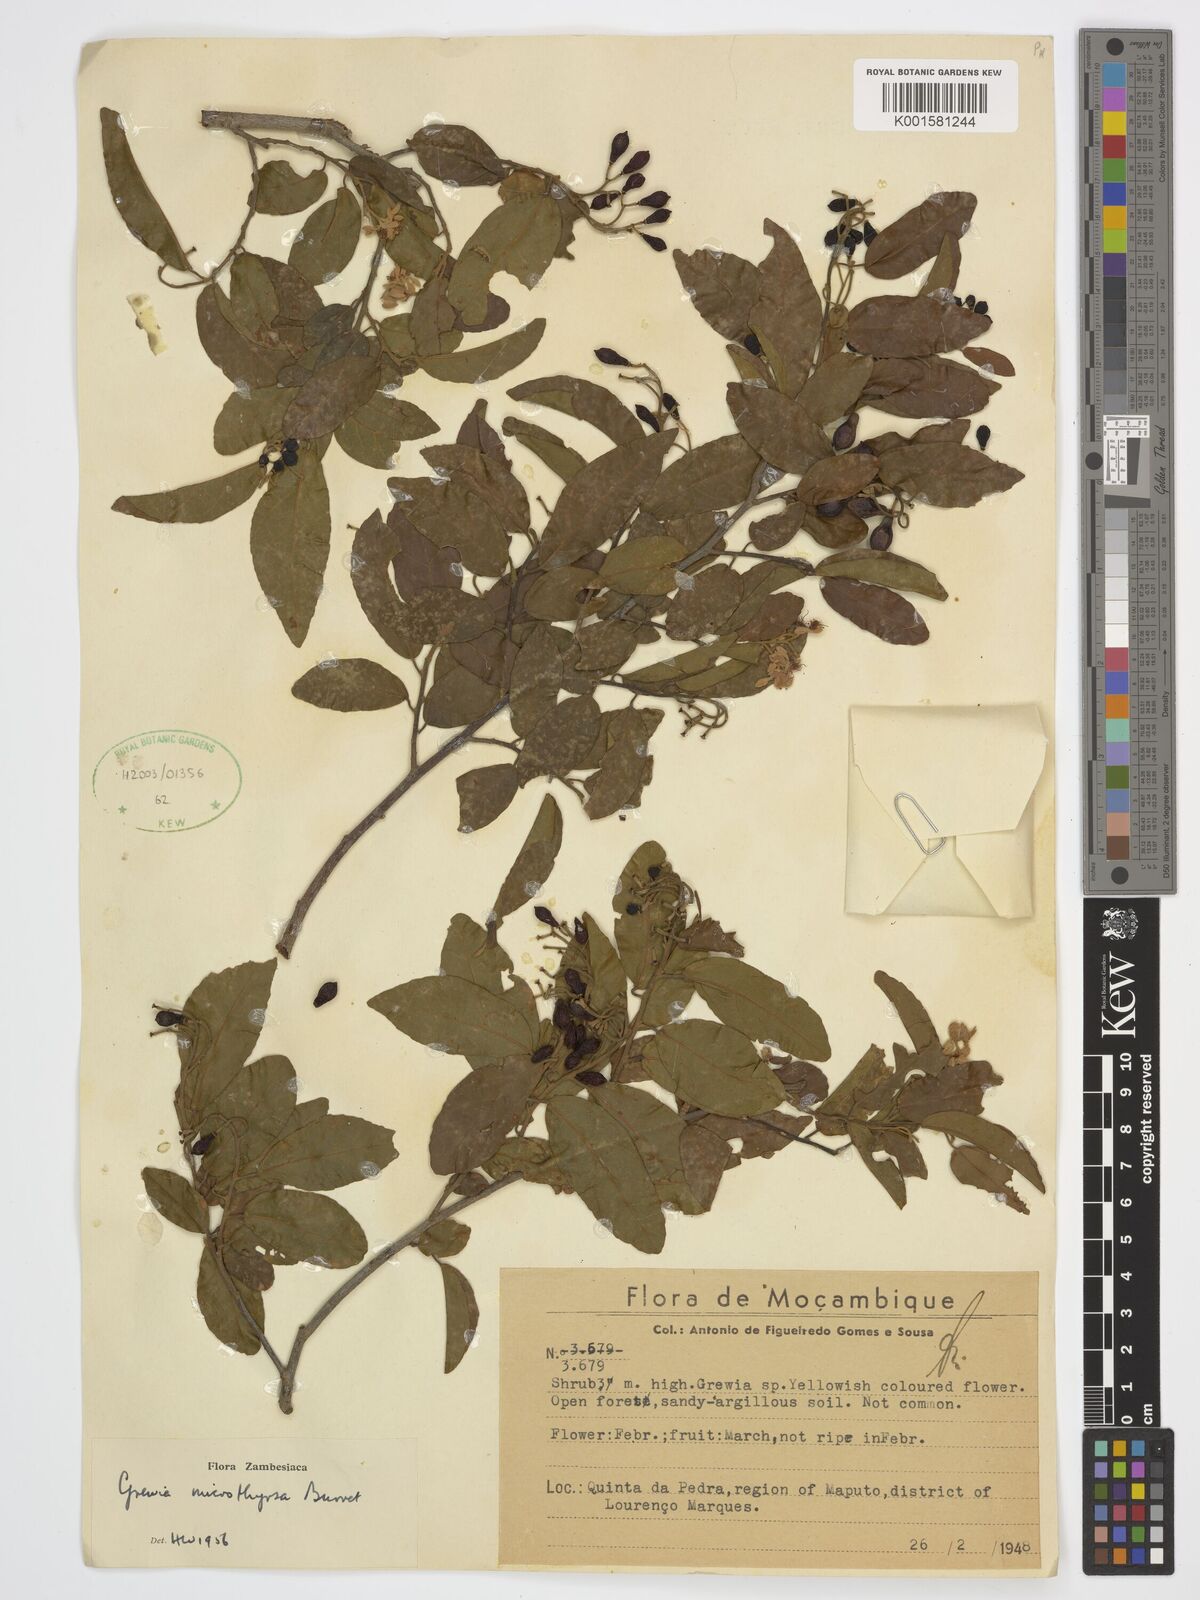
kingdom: Plantae
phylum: Tracheophyta
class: Magnoliopsida
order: Malvales
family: Malvaceae
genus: Microcos
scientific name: Microcos microthyrsa
